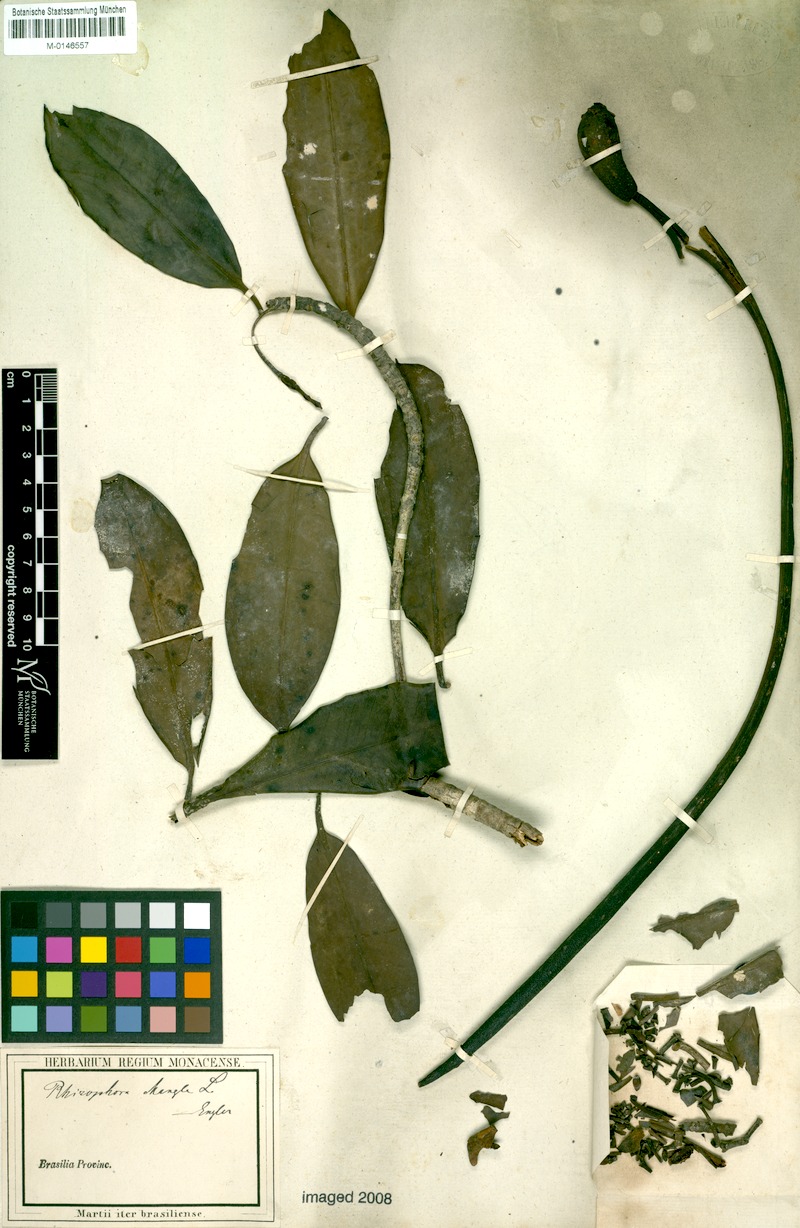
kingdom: Plantae
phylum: Tracheophyta
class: Magnoliopsida
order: Malpighiales
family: Rhizophoraceae
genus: Rhizophora
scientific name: Rhizophora mangle
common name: Red mangrove
